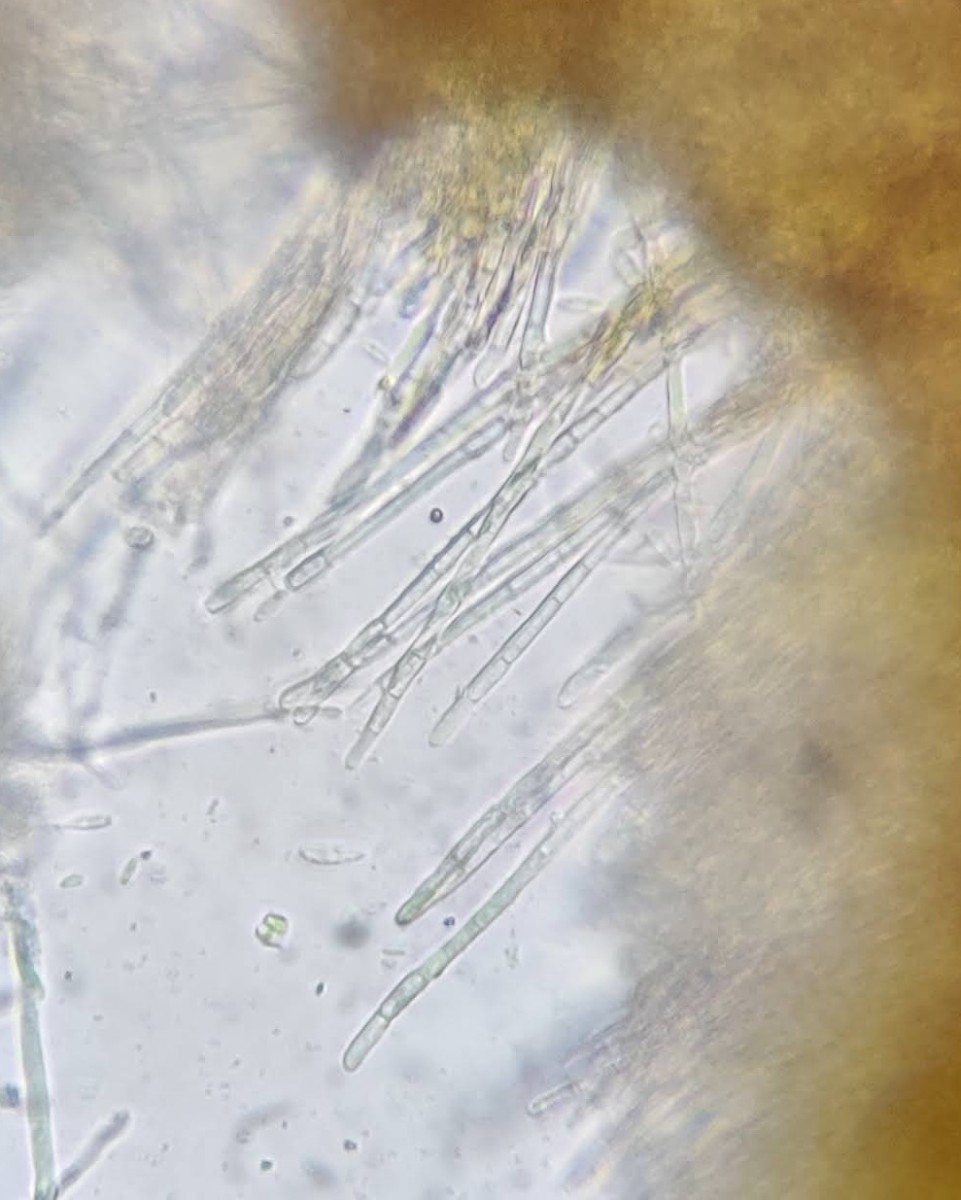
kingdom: Fungi
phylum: Ascomycota
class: Leotiomycetes
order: Helotiales
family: Lachnaceae
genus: Trichopeziza
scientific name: Trichopeziza subsulphurea
